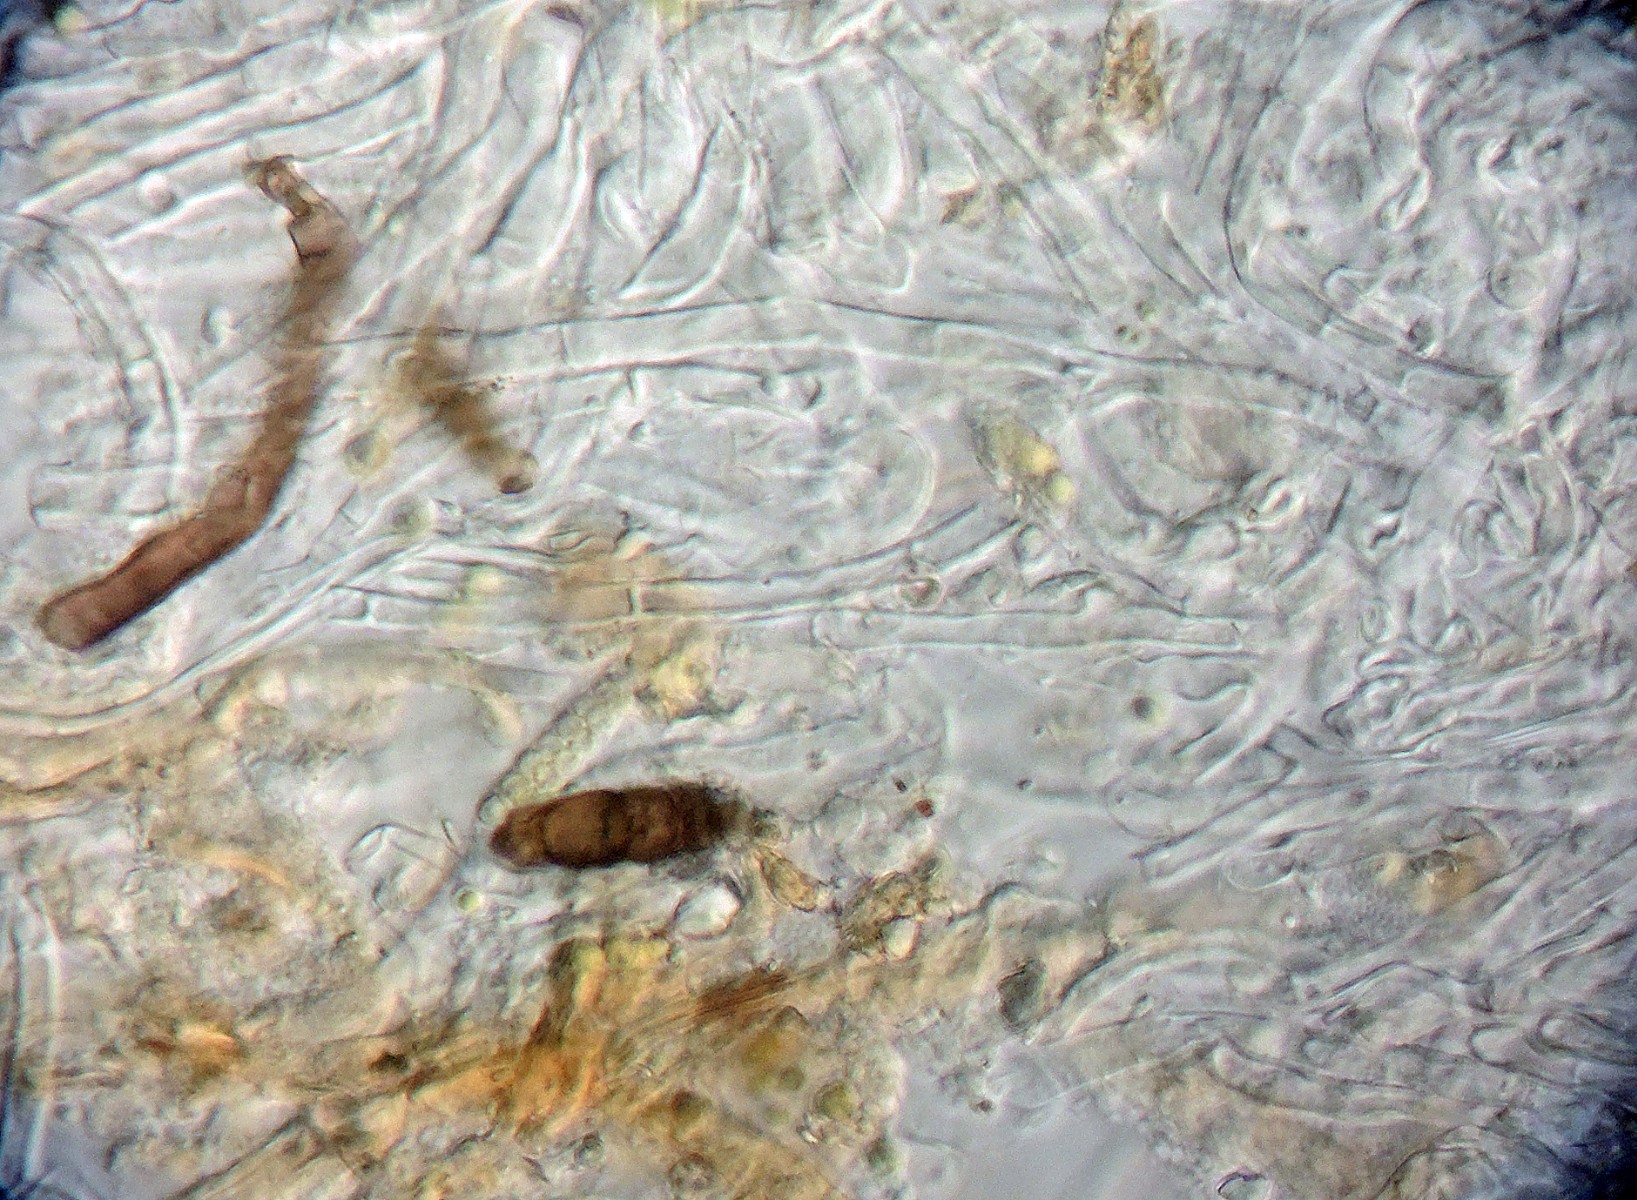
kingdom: Fungi
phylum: Ascomycota
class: Pezizomycetes
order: Pezizales
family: Pyronemataceae
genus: Octospora
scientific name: Octospora rustica
